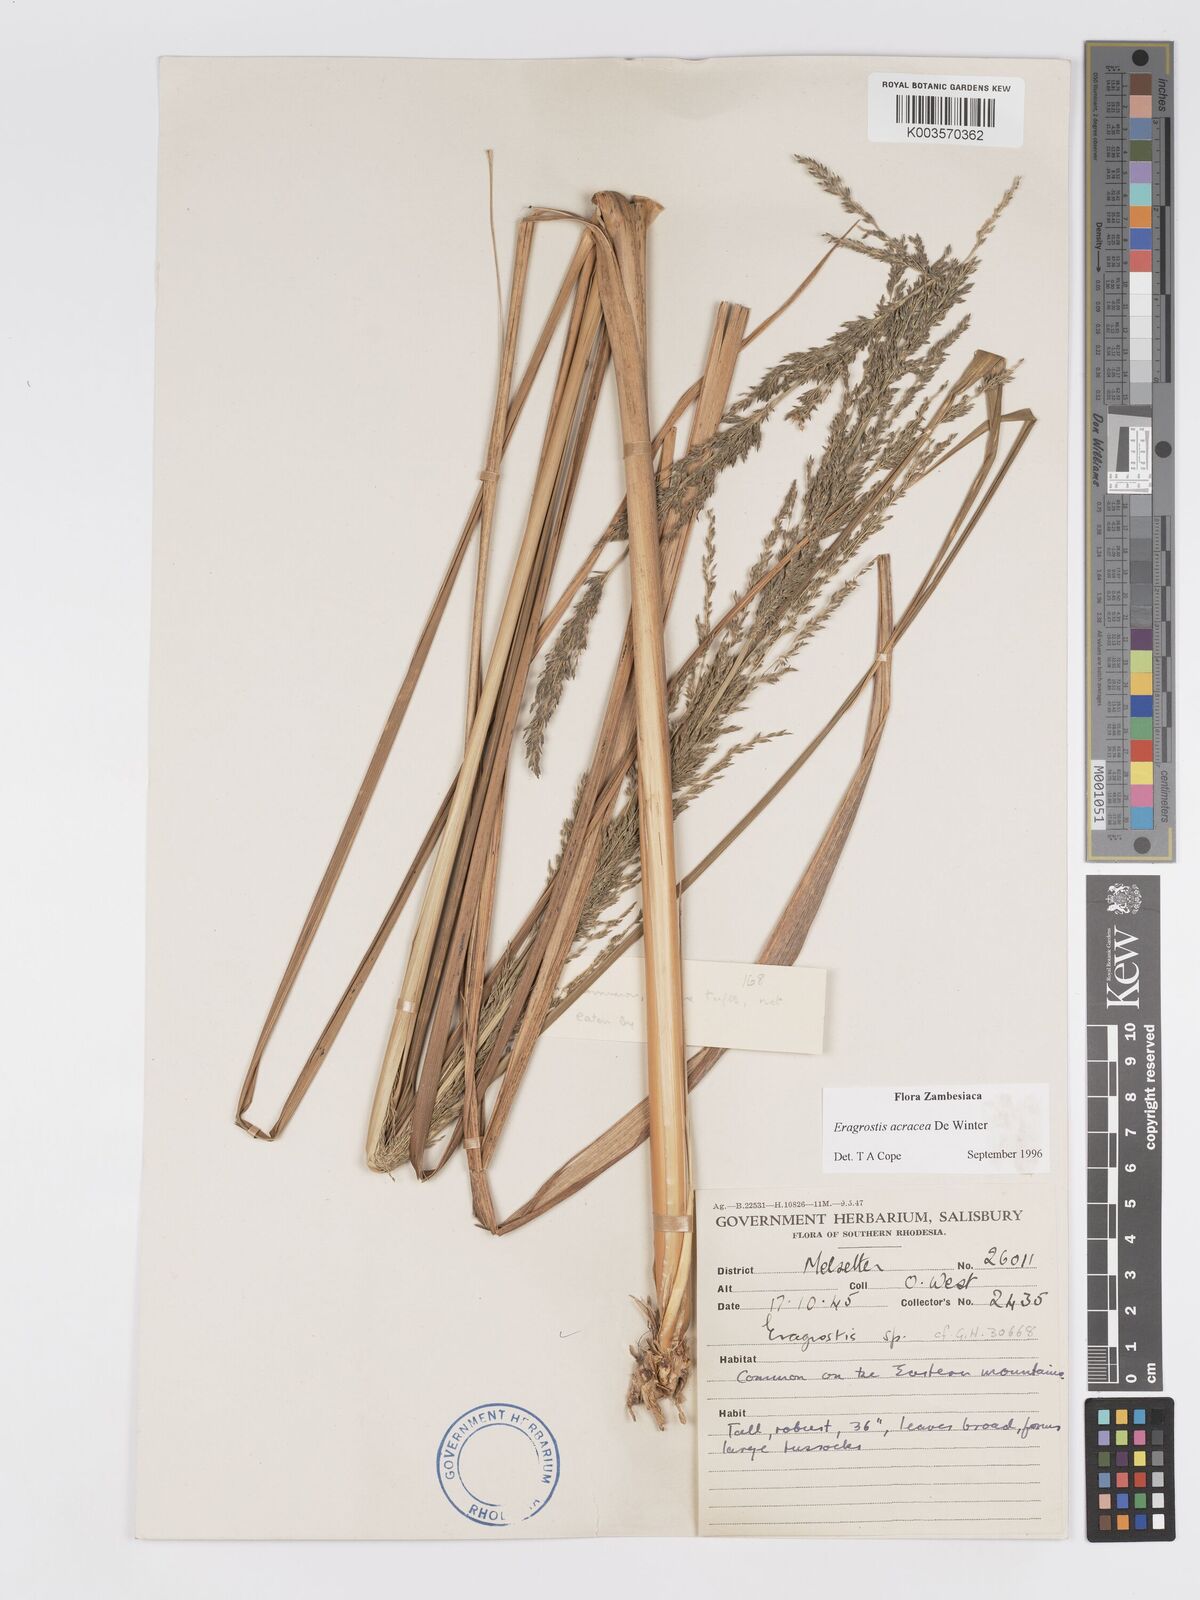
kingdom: Plantae
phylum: Tracheophyta
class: Liliopsida
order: Poales
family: Poaceae
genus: Eragrostis
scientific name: Eragrostis acraea
